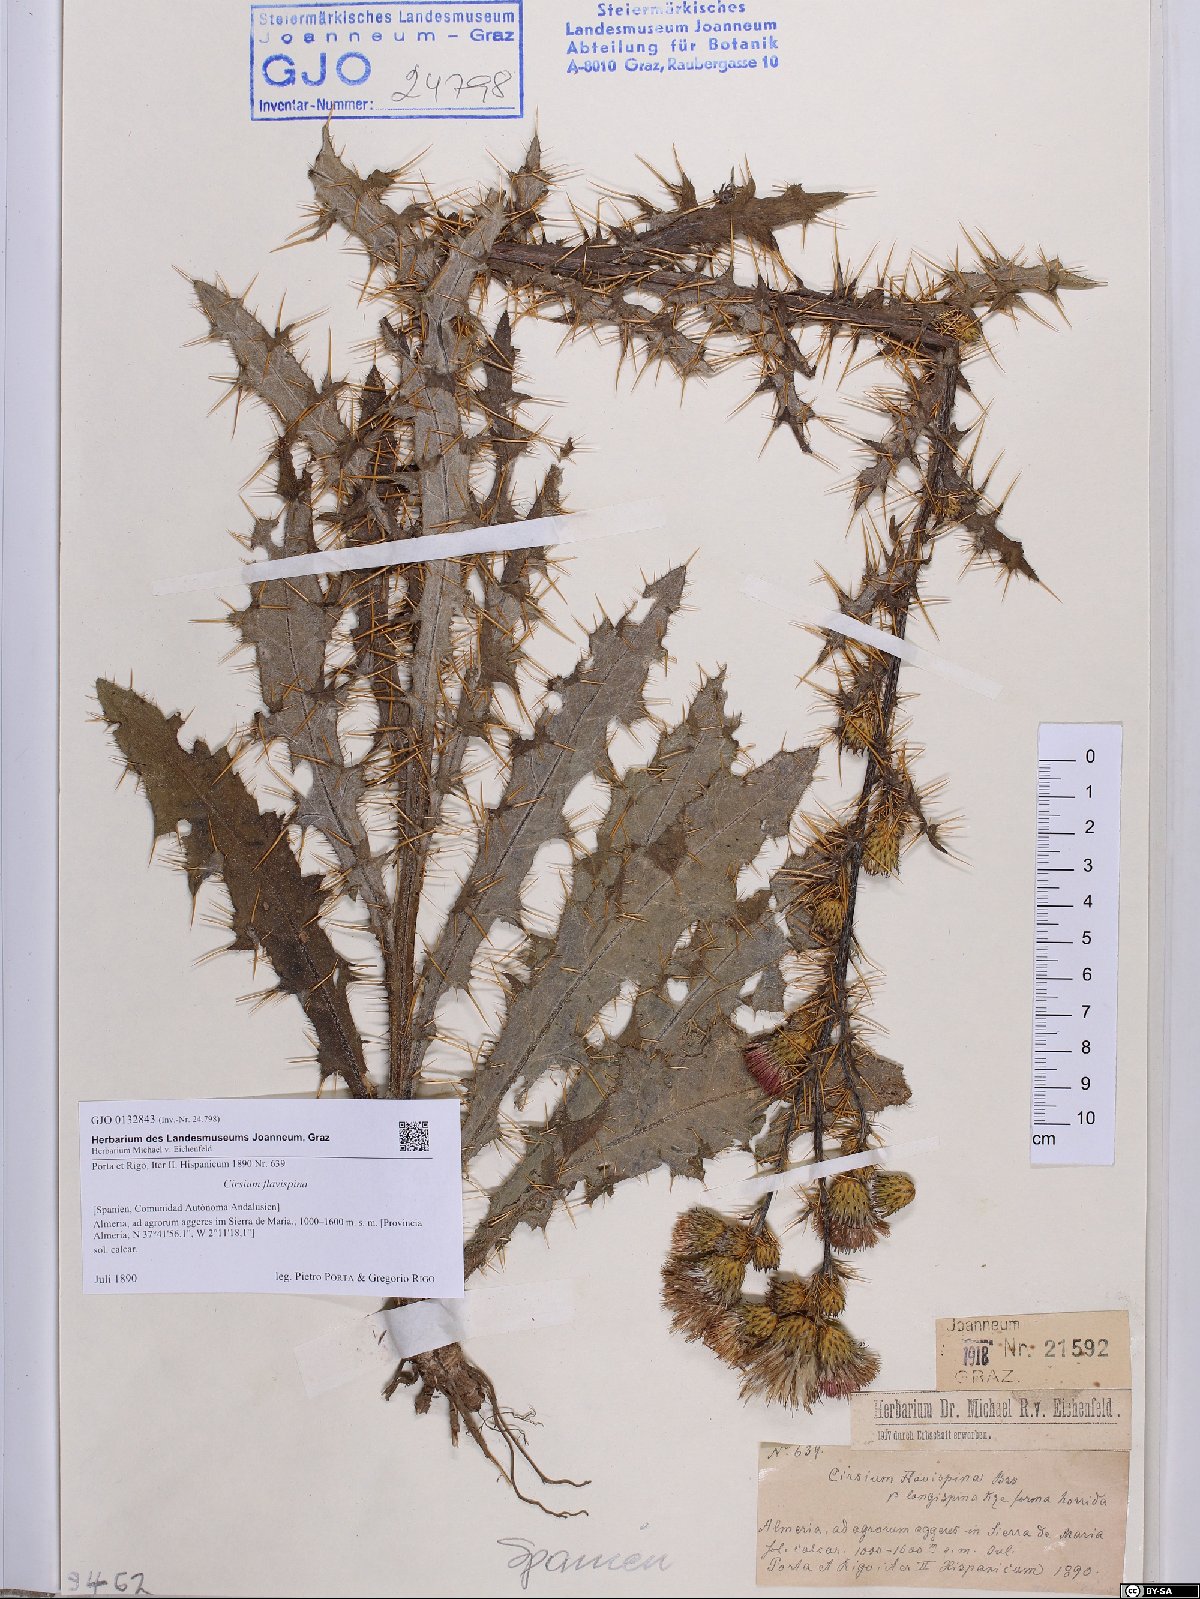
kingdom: Plantae
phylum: Tracheophyta
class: Magnoliopsida
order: Asterales
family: Asteraceae
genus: Cirsium
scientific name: Cirsium pyrenaicum
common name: Pyrenean thistle
